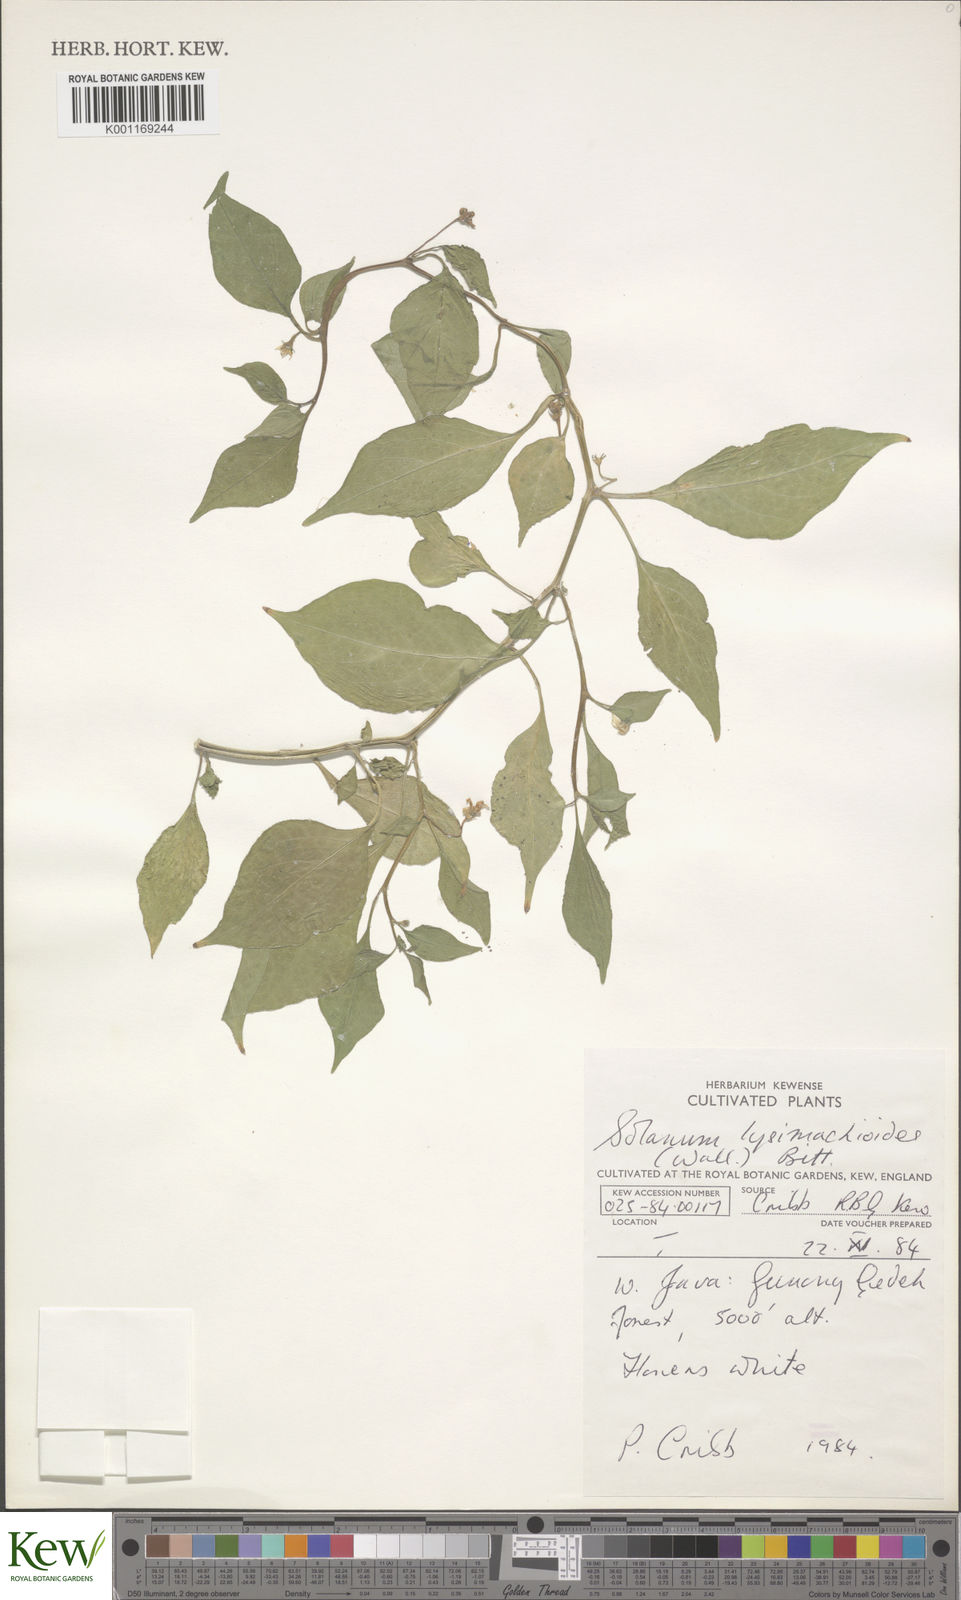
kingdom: Plantae
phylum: Tracheophyta
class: Magnoliopsida
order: Solanales
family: Solanaceae
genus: Lycianthes
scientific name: Lycianthes lysimachioides
